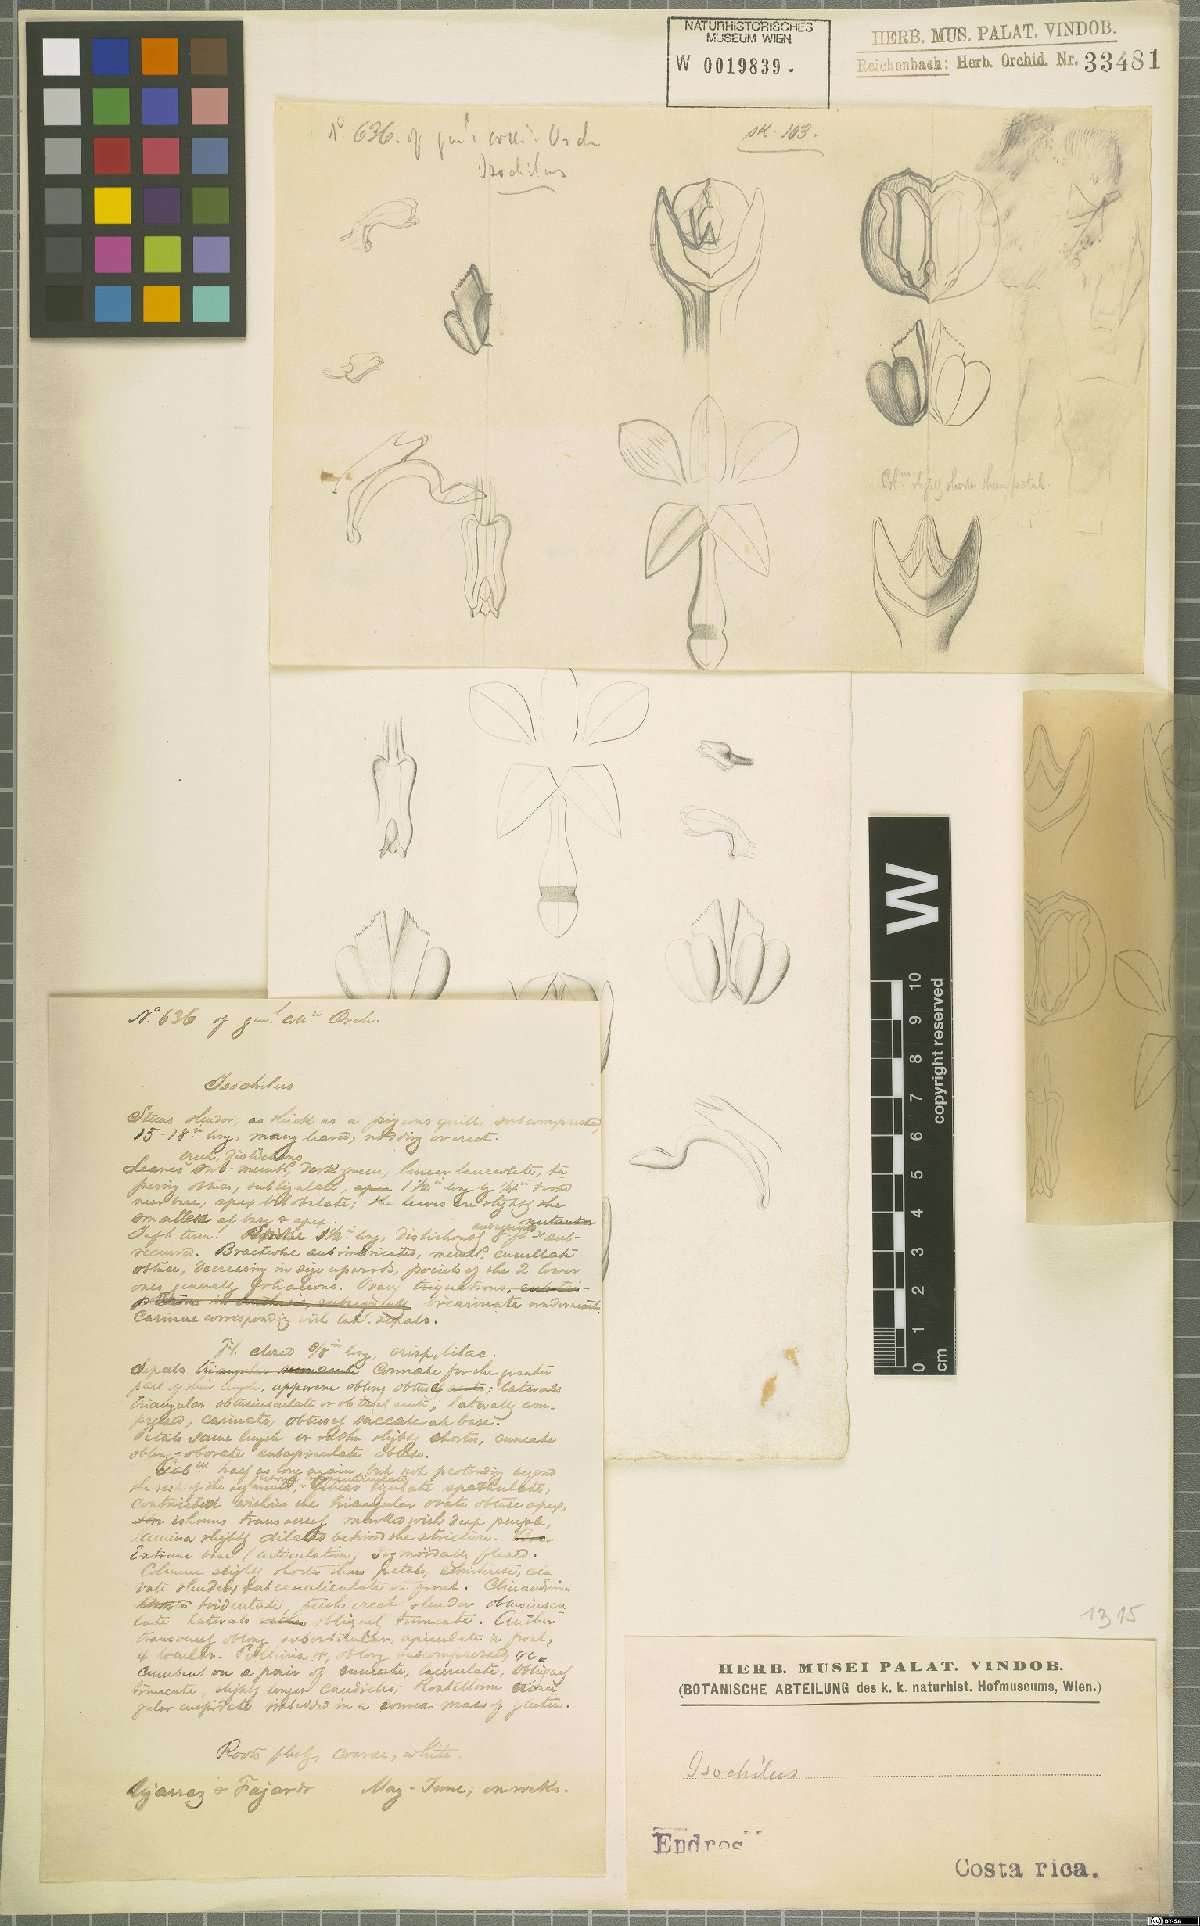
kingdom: Plantae
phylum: Tracheophyta
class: Liliopsida
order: Asparagales
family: Orchidaceae
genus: Isochilus
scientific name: Isochilus
